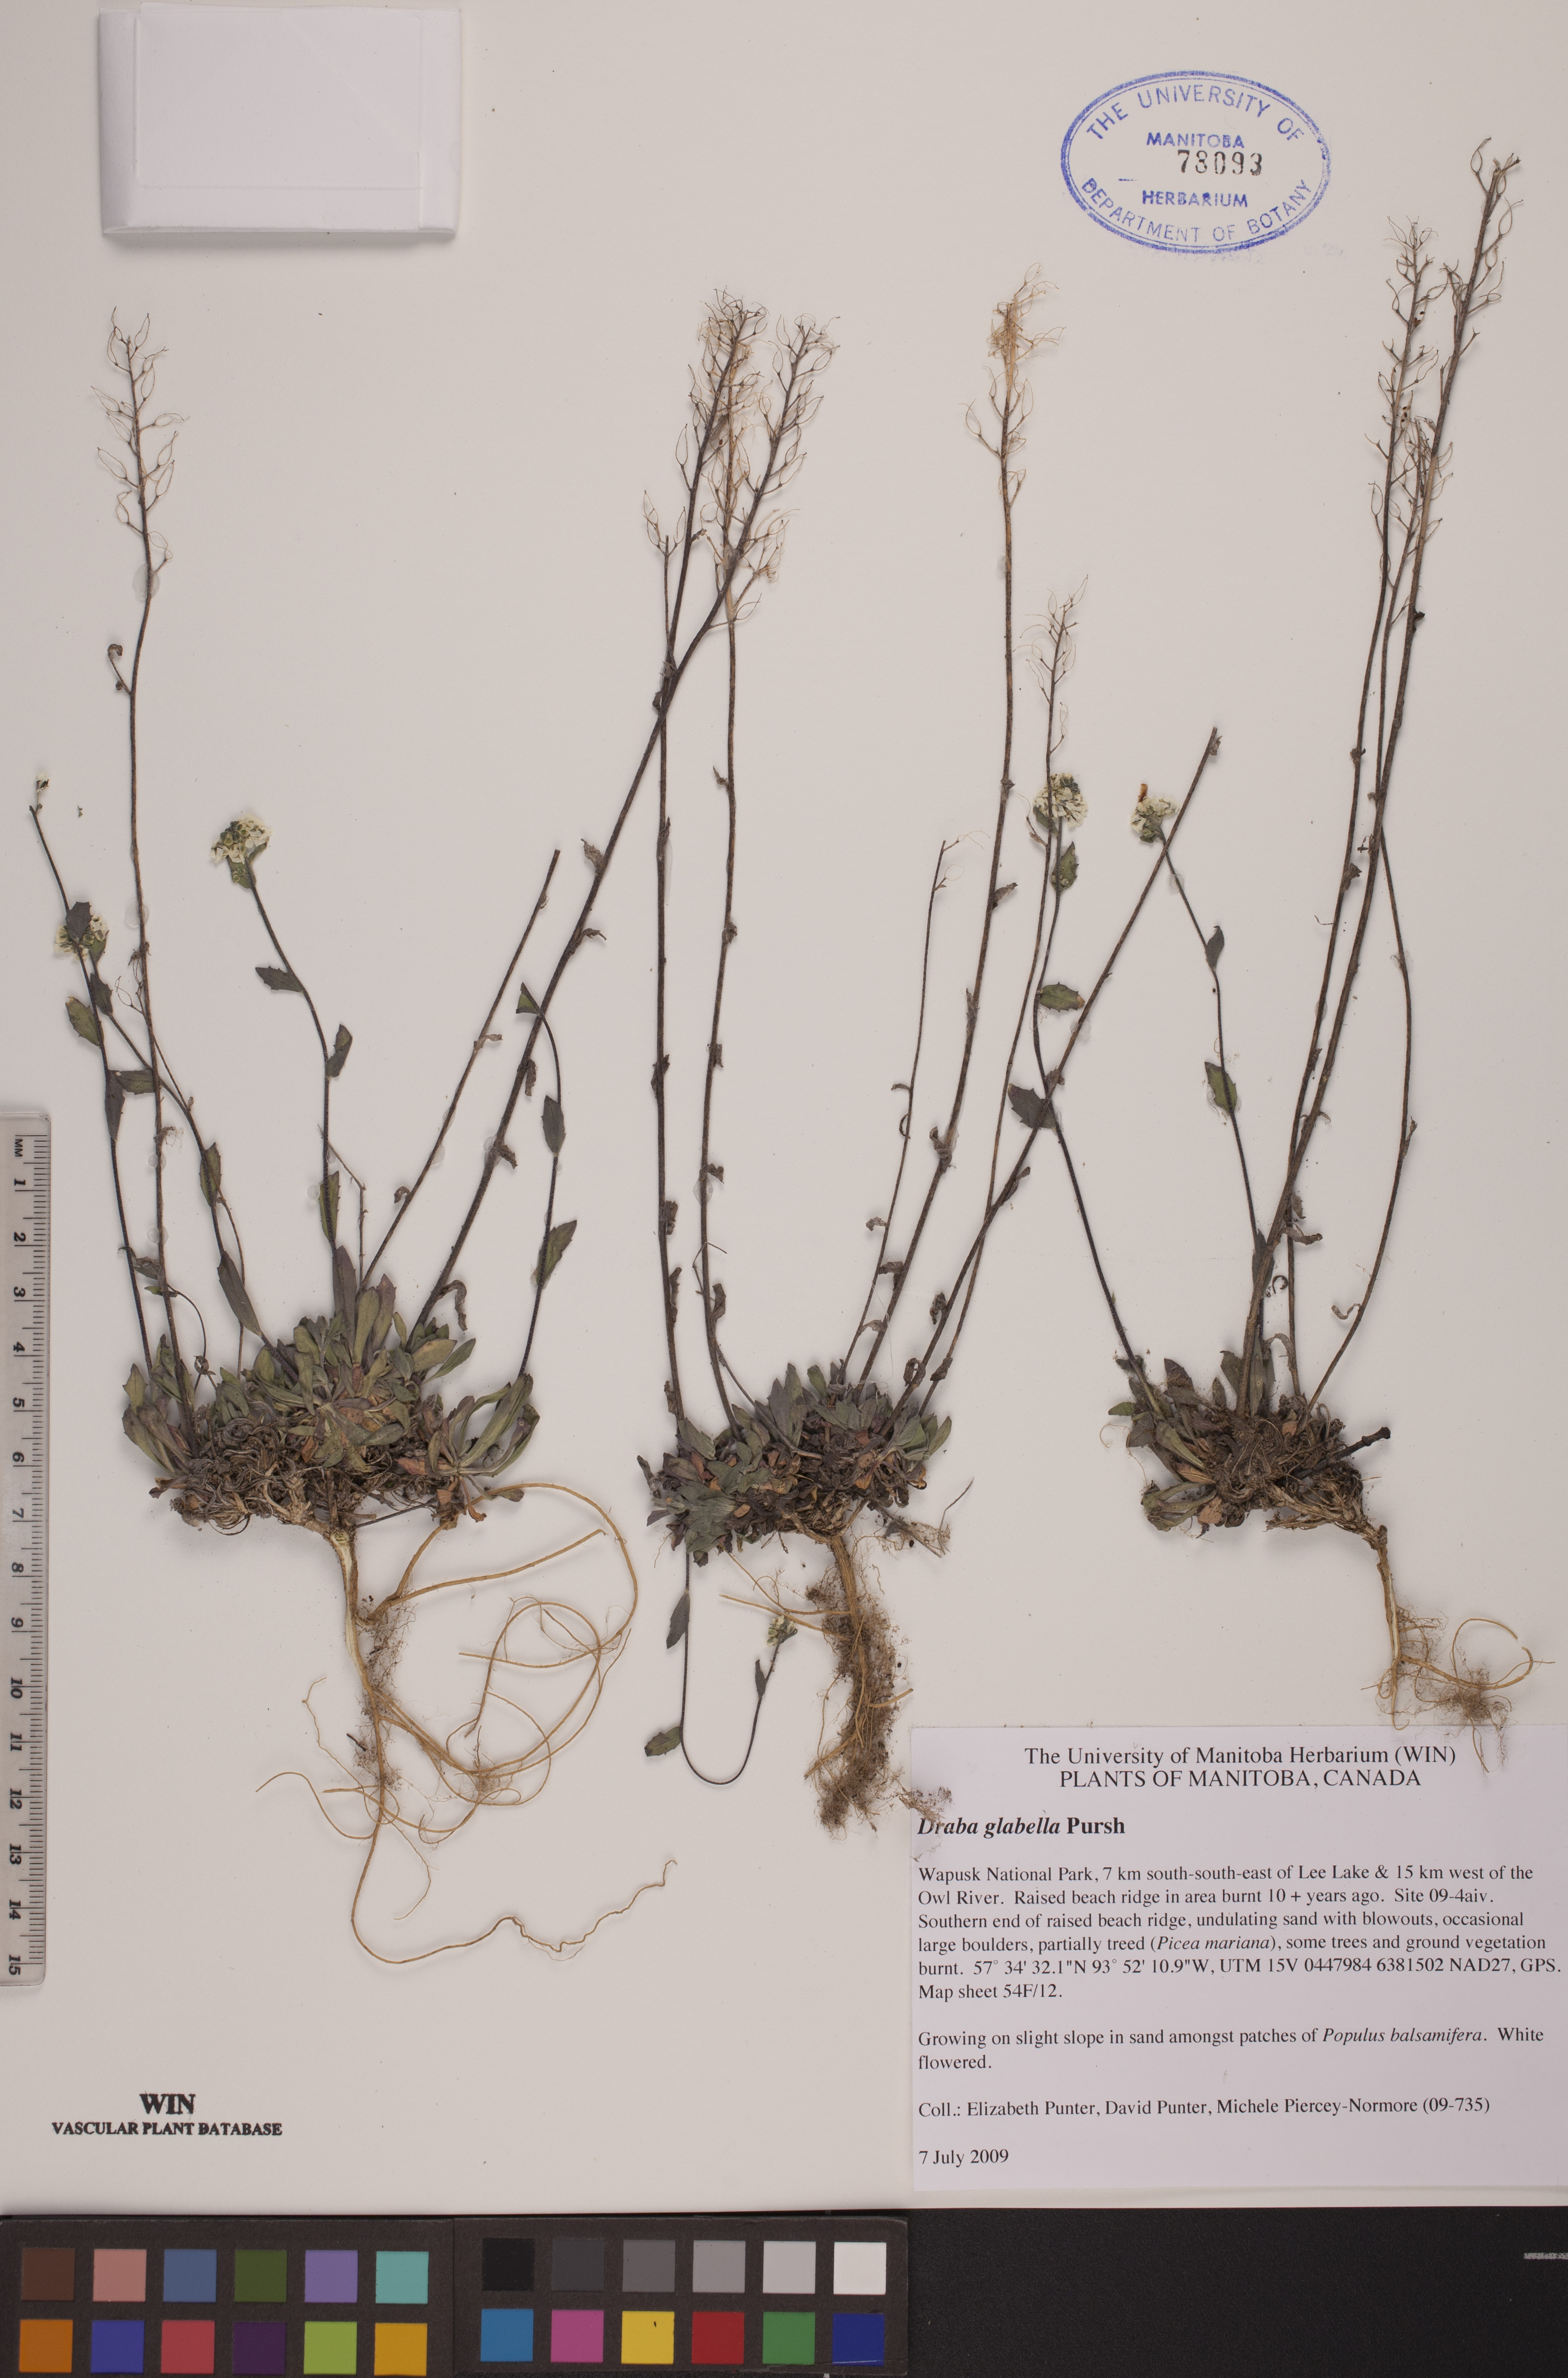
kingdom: Plantae
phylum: Tracheophyta
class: Magnoliopsida
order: Brassicales
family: Brassicaceae
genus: Draba
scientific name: Draba glabella
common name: Glaucous draba
